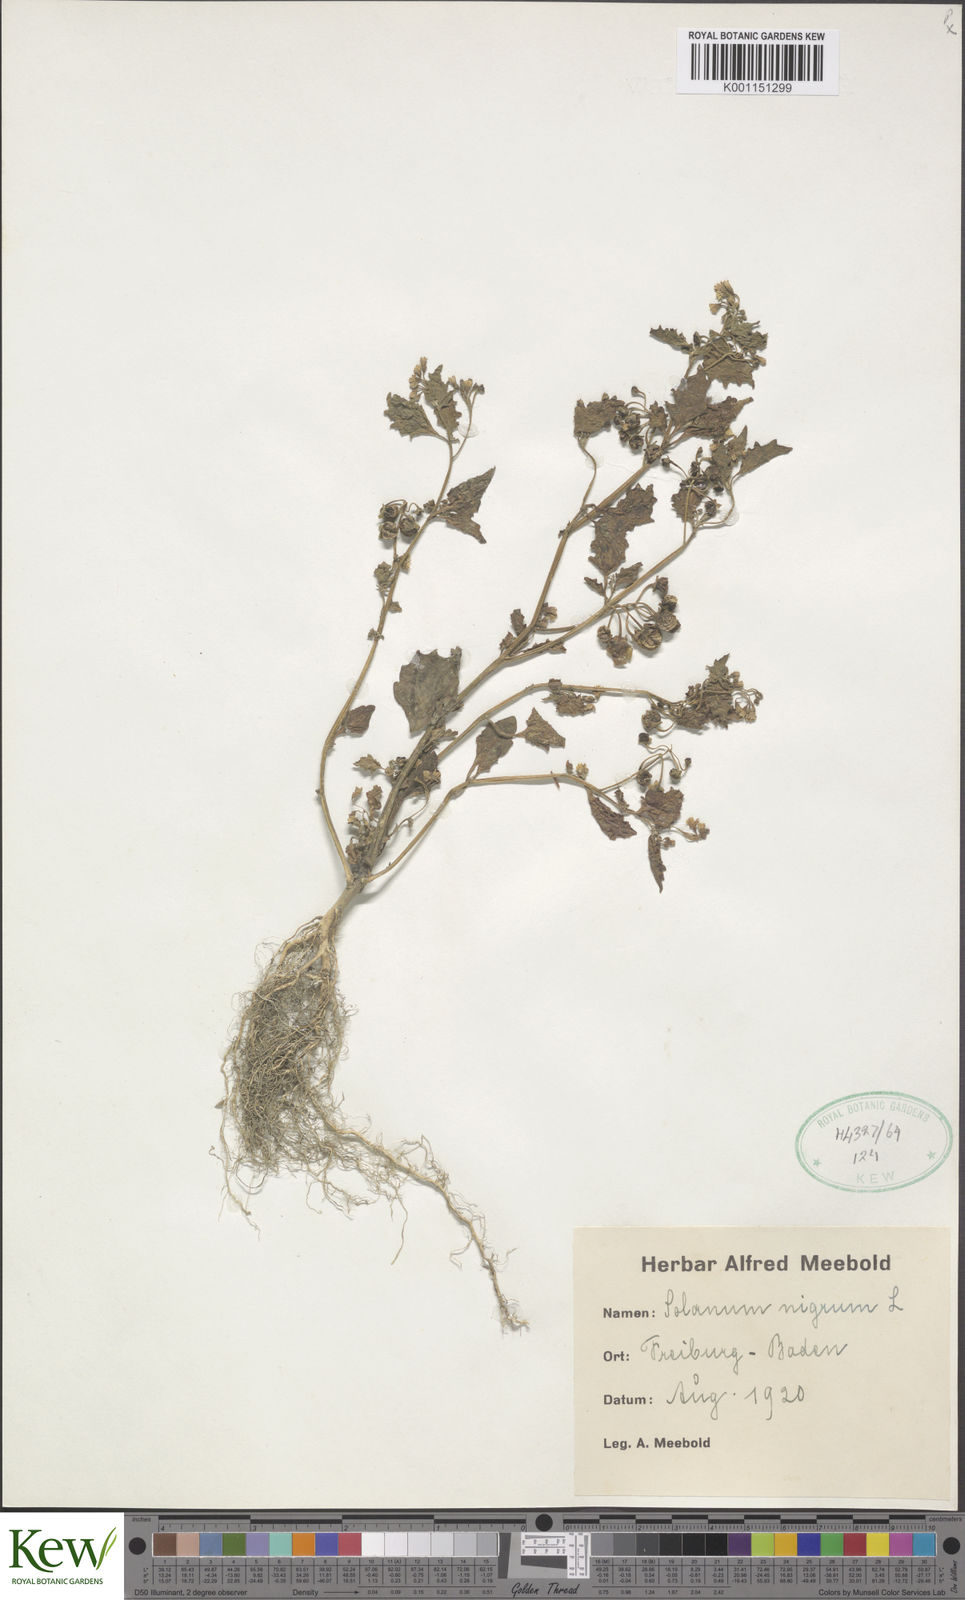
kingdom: Plantae
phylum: Tracheophyta
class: Magnoliopsida
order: Solanales
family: Solanaceae
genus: Solanum
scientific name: Solanum nigrum
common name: Black nightshade
